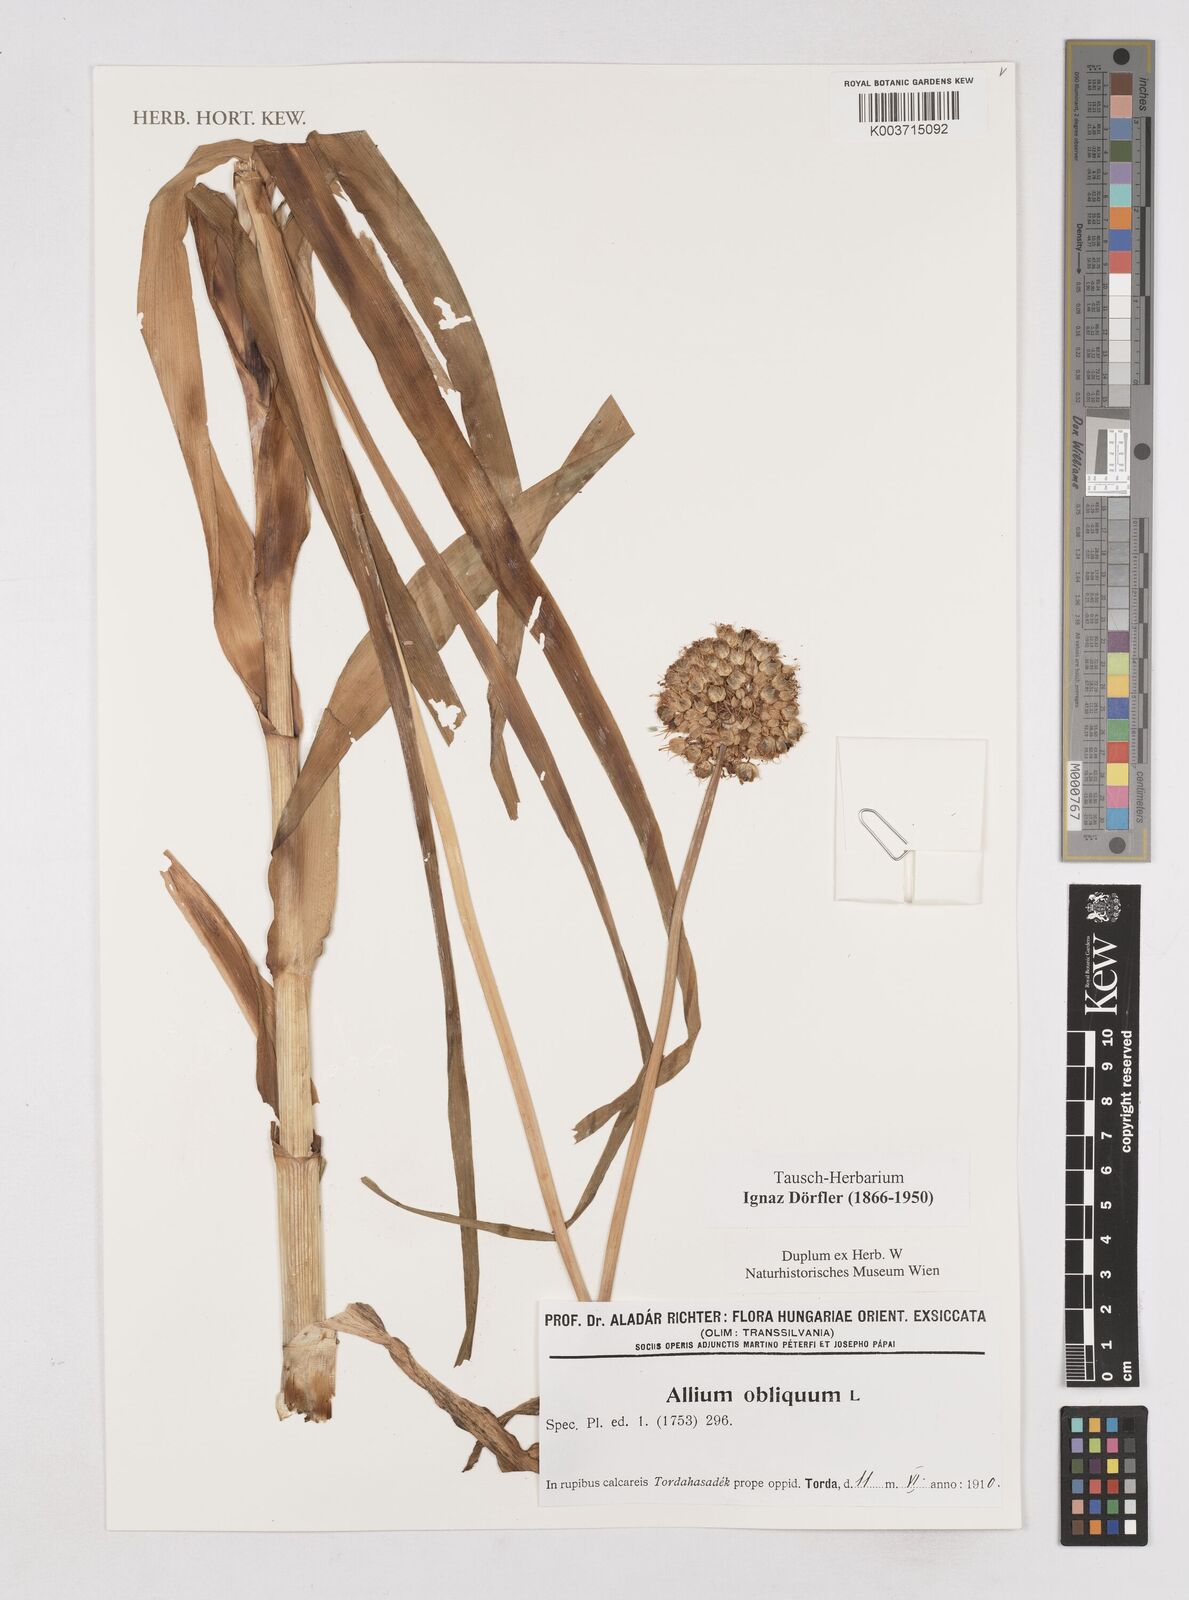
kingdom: Plantae
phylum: Tracheophyta
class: Liliopsida
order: Asparagales
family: Amaryllidaceae
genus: Allium
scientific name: Allium obliquum
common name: Oblique onion
